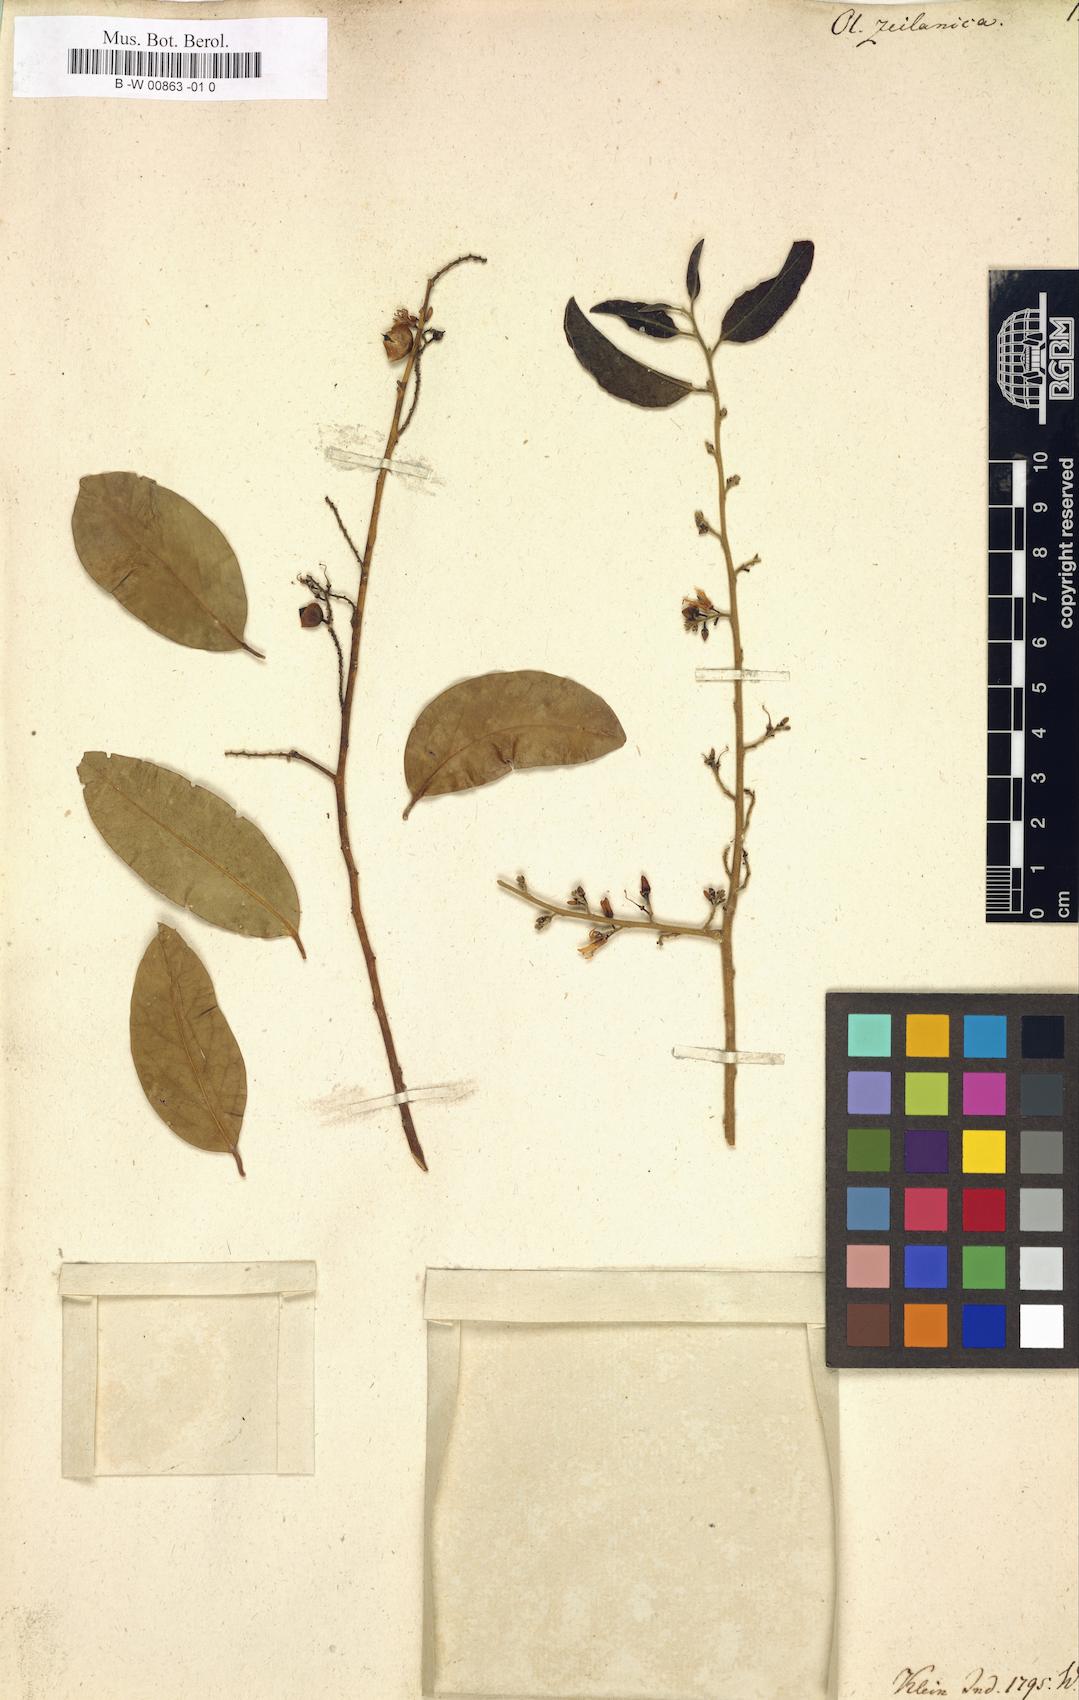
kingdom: Plantae
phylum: Tracheophyta
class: Magnoliopsida
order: Santalales
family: Olacaceae
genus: Olax
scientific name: Olax zeylanica
